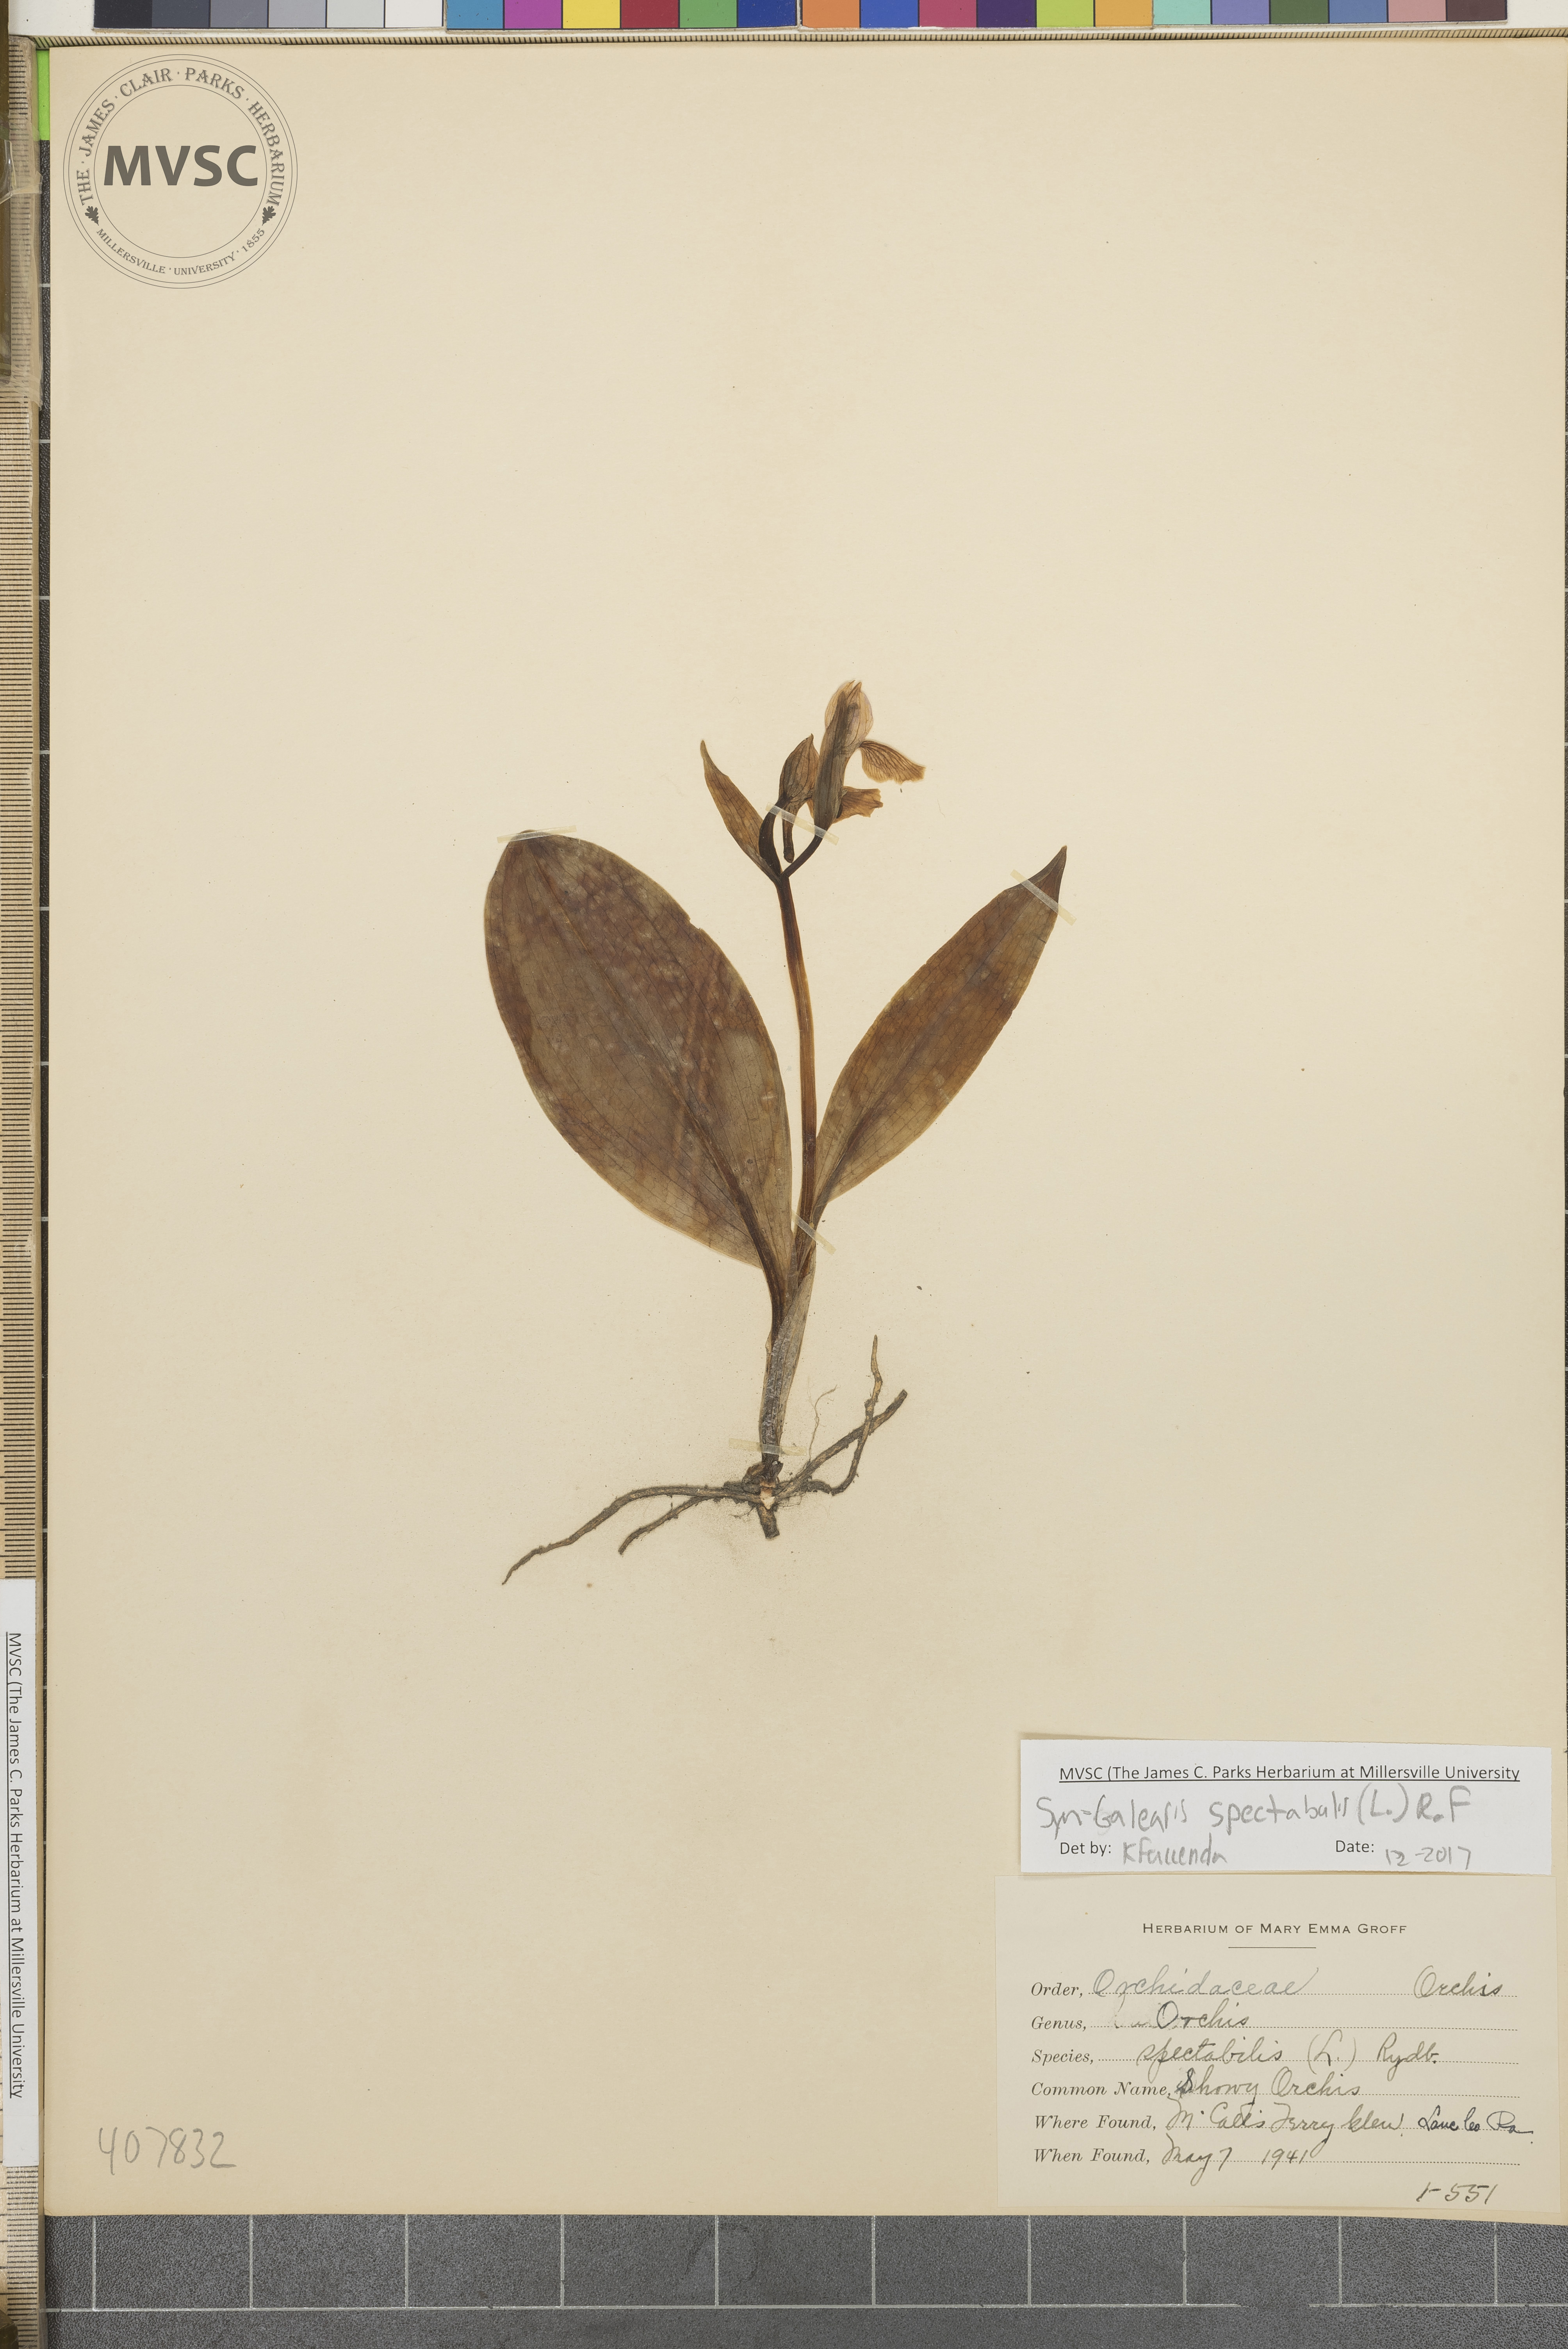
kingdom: Plantae
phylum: Tracheophyta
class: Liliopsida
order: Asparagales
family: Orchidaceae
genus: Galearis
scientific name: Galearis spectabilis
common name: Showy Orchis
